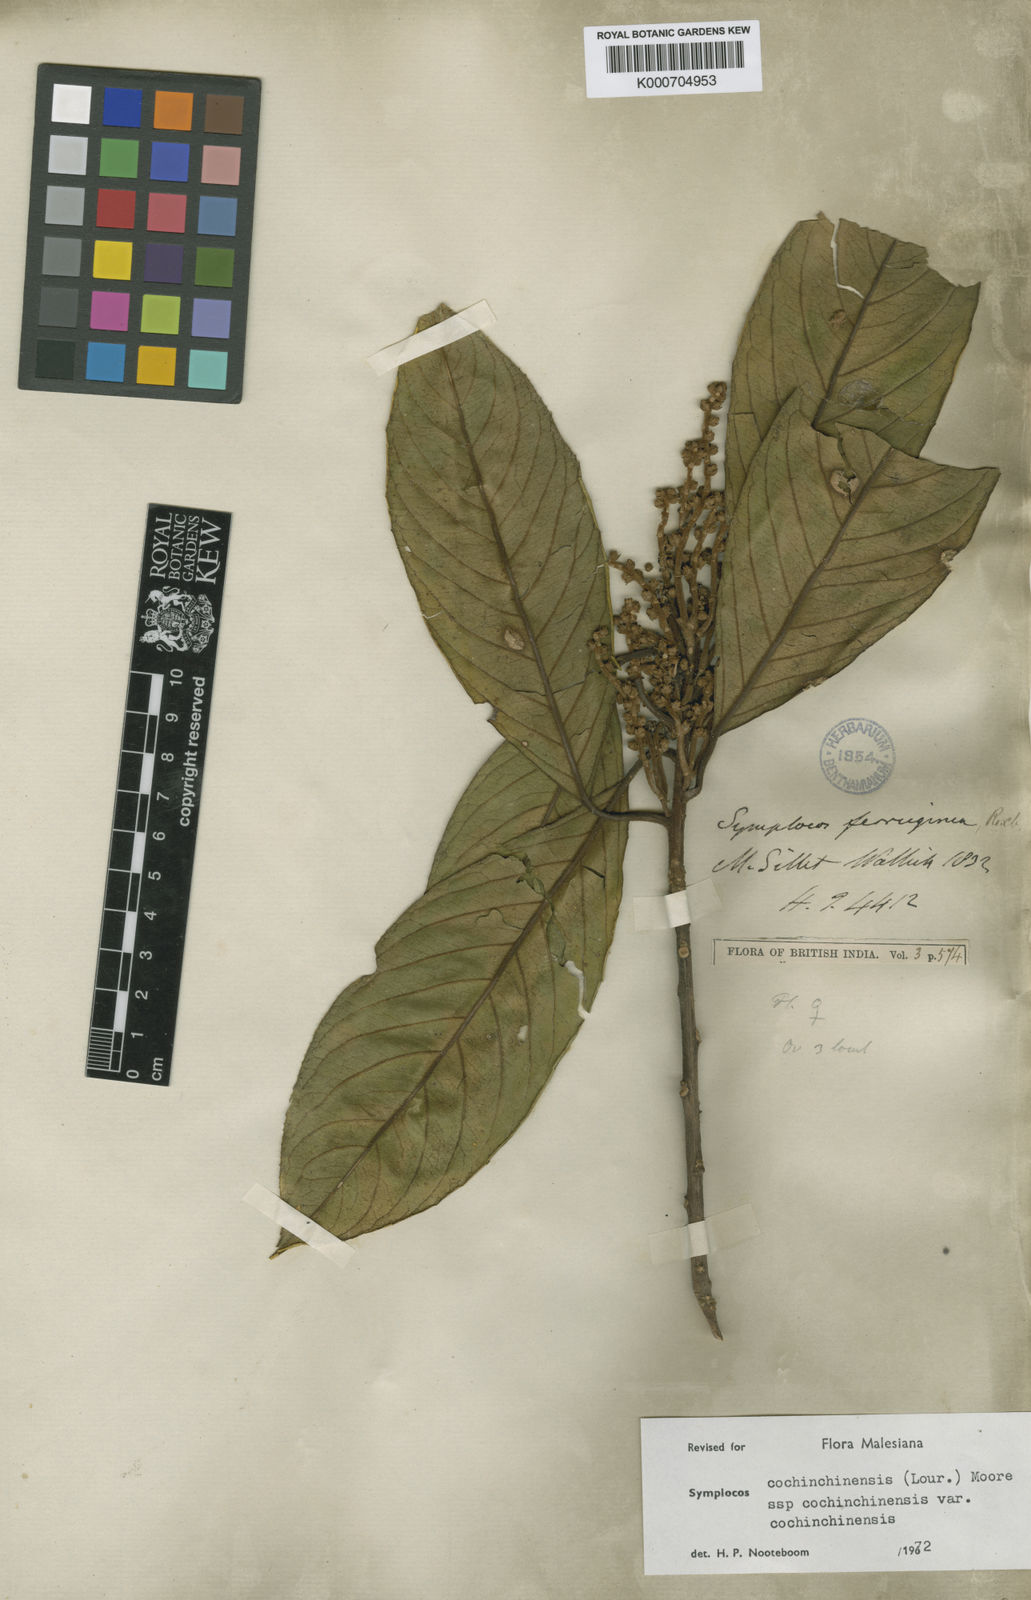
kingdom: Plantae
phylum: Tracheophyta
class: Magnoliopsida
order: Ericales
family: Symplocaceae
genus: Symplocos
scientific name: Symplocos cochinchinensis
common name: Buff hazelwood
